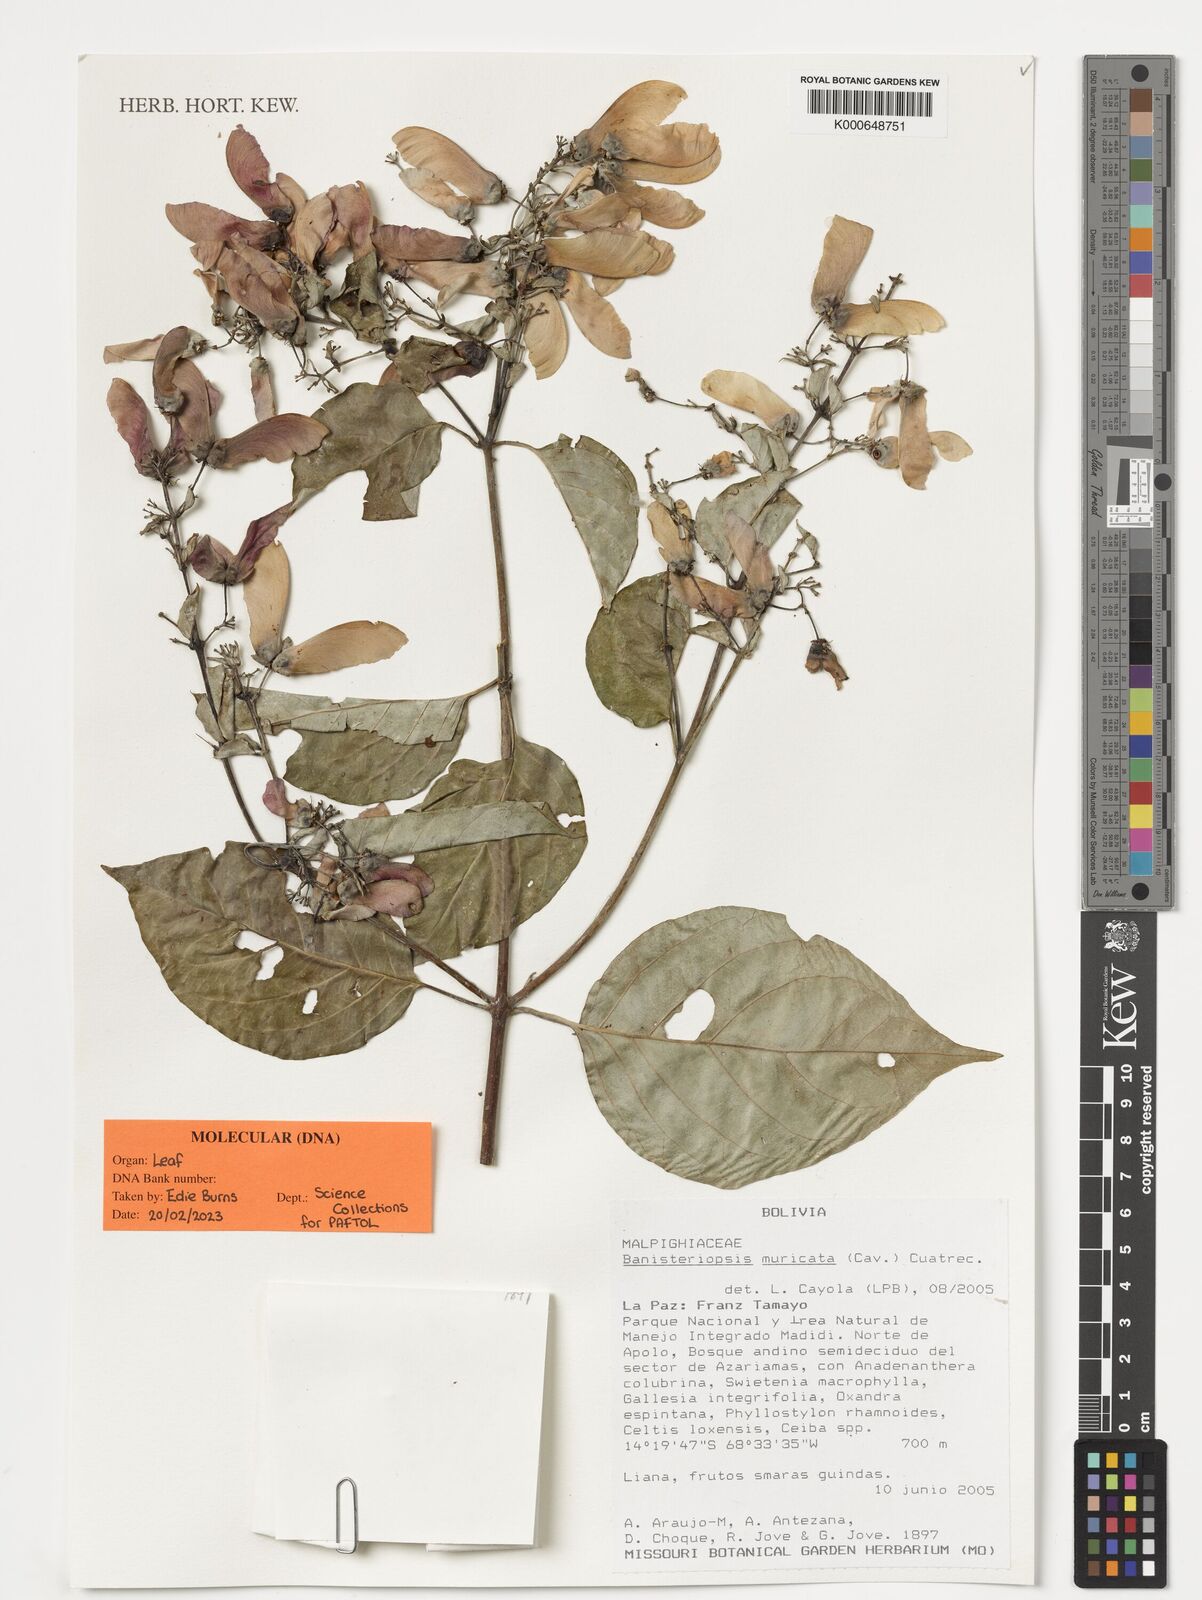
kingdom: Plantae
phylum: Tracheophyta
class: Magnoliopsida
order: Malpighiales
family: Malpighiaceae
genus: Banisteriopsis
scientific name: Banisteriopsis muricata
